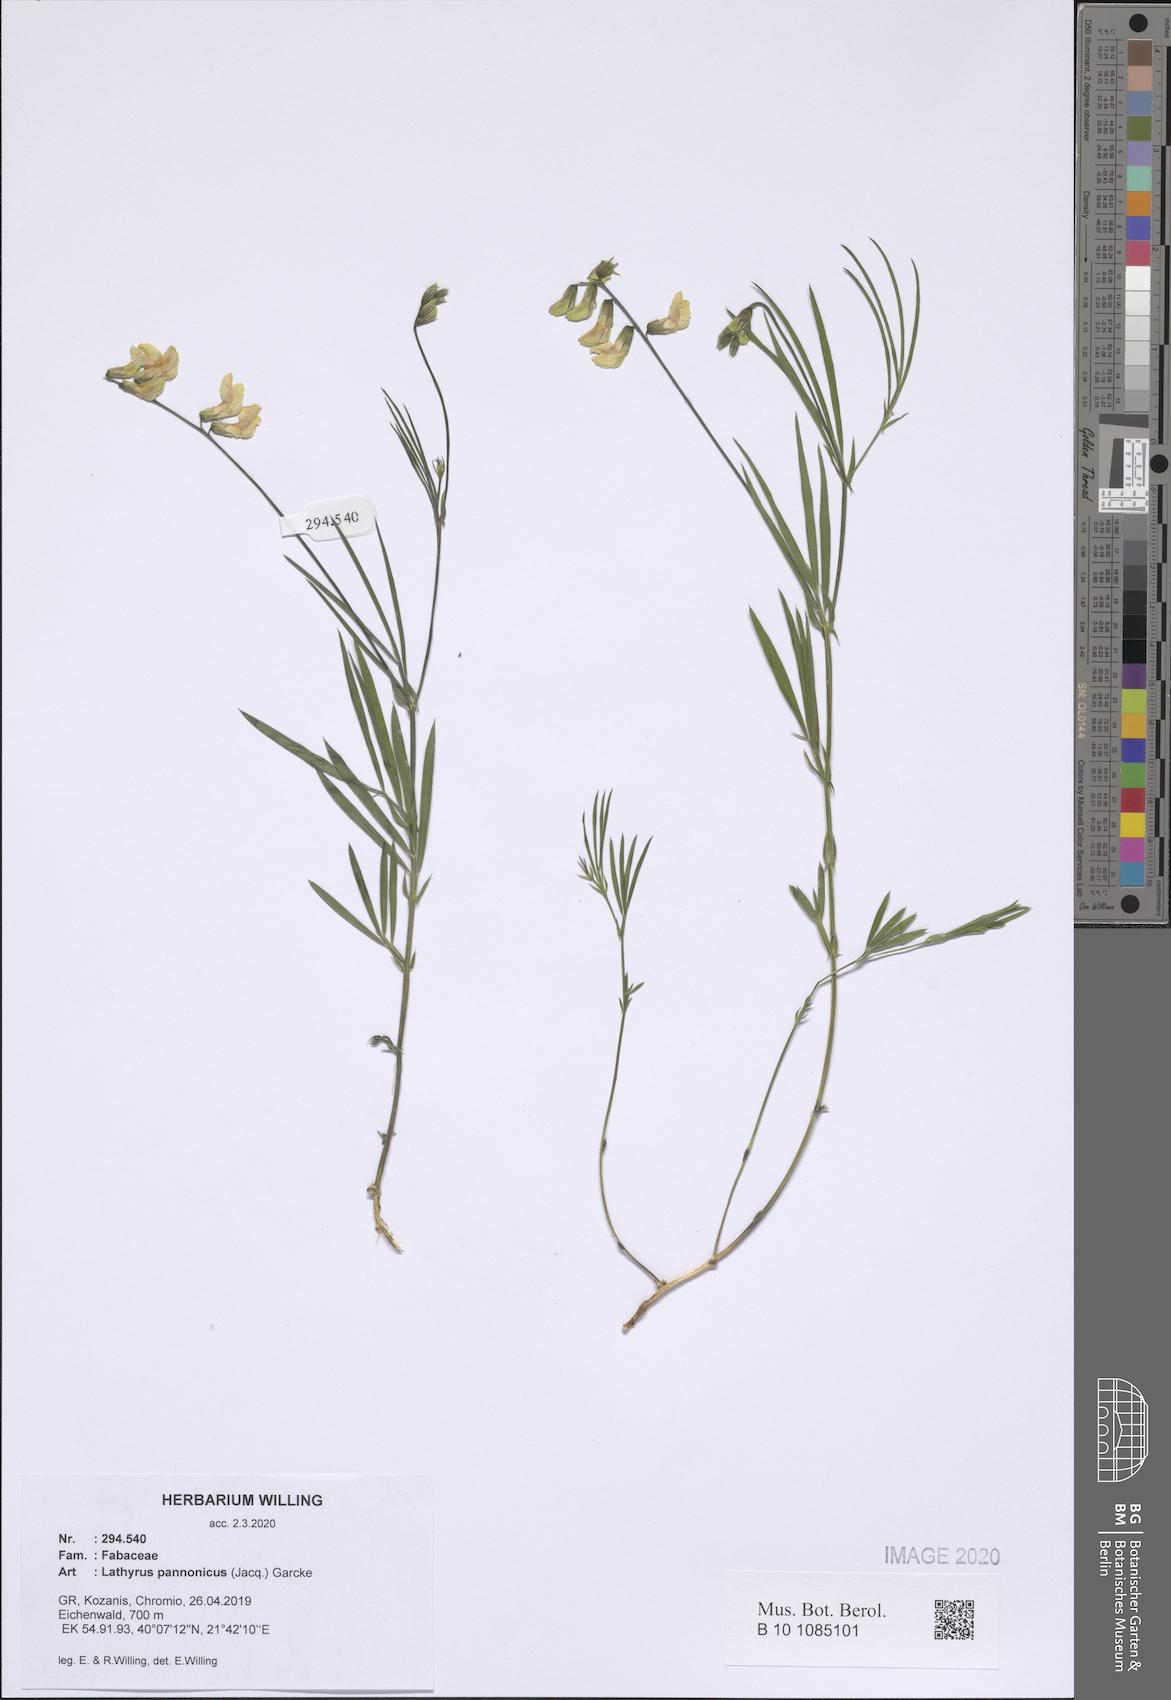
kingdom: Plantae
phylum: Tracheophyta
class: Magnoliopsida
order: Fabales
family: Fabaceae
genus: Lathyrus
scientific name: Lathyrus pannonicus
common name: Pea
